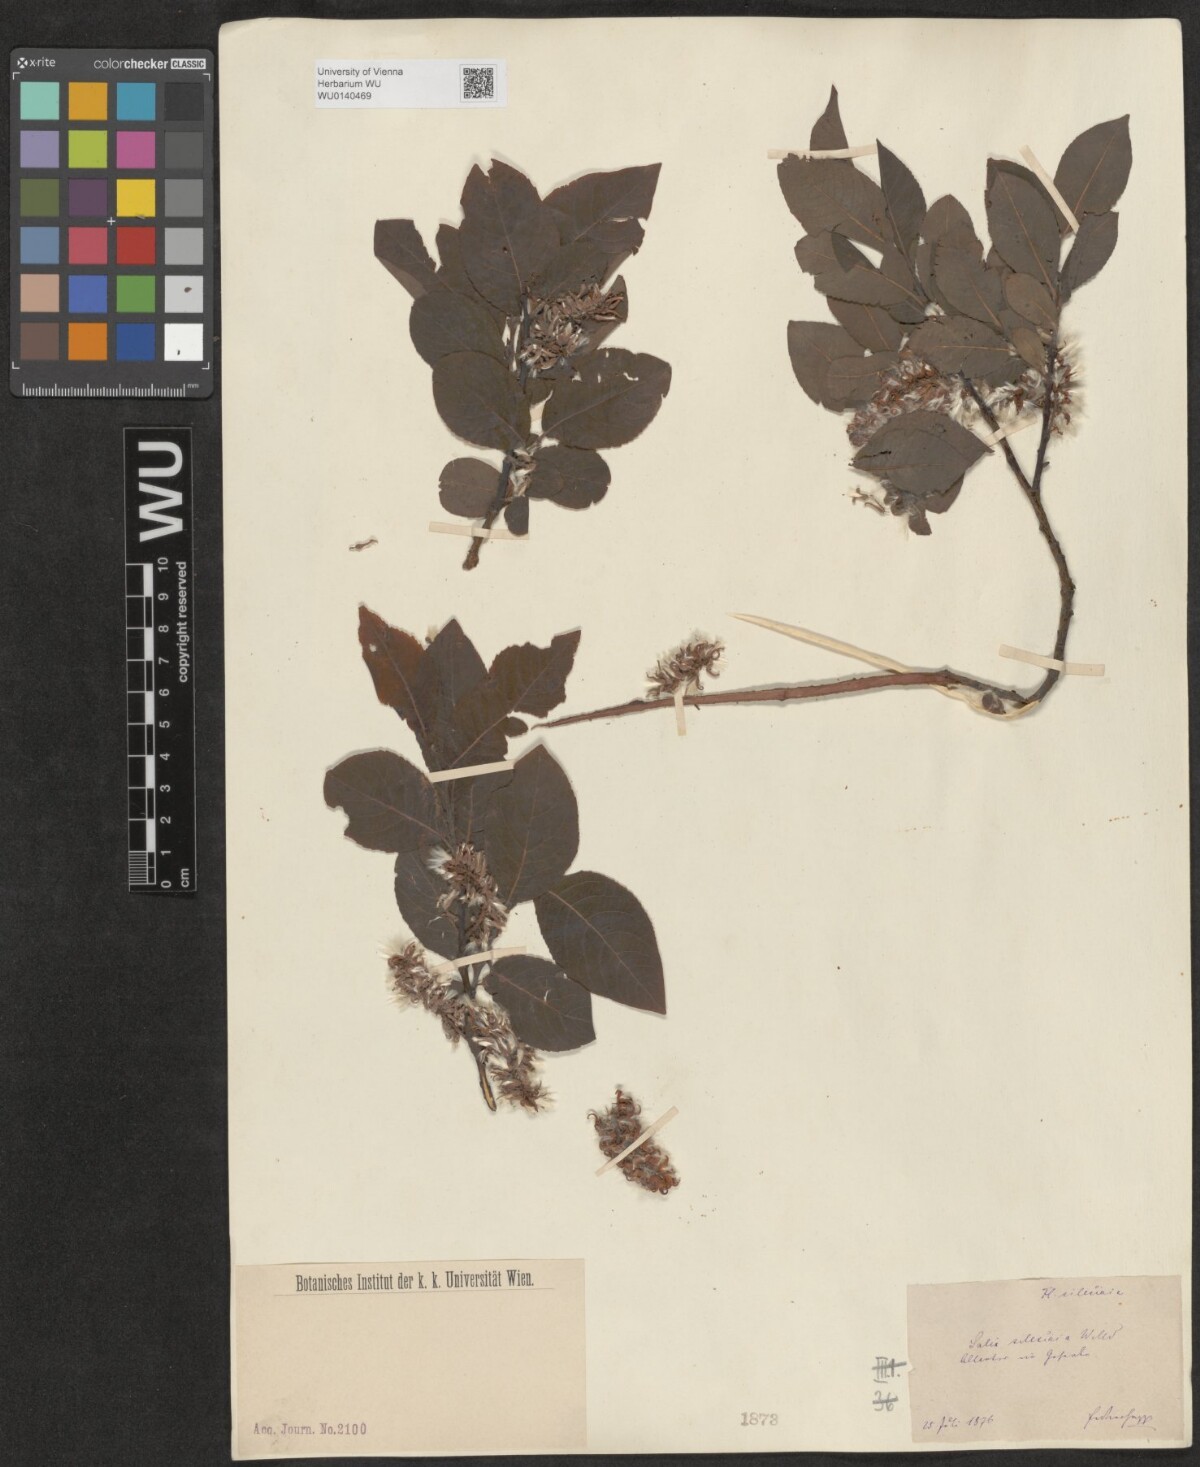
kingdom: Plantae
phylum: Tracheophyta
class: Magnoliopsida
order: Malpighiales
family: Salicaceae
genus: Salix
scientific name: Salix silesiaca
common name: Silesian willow
